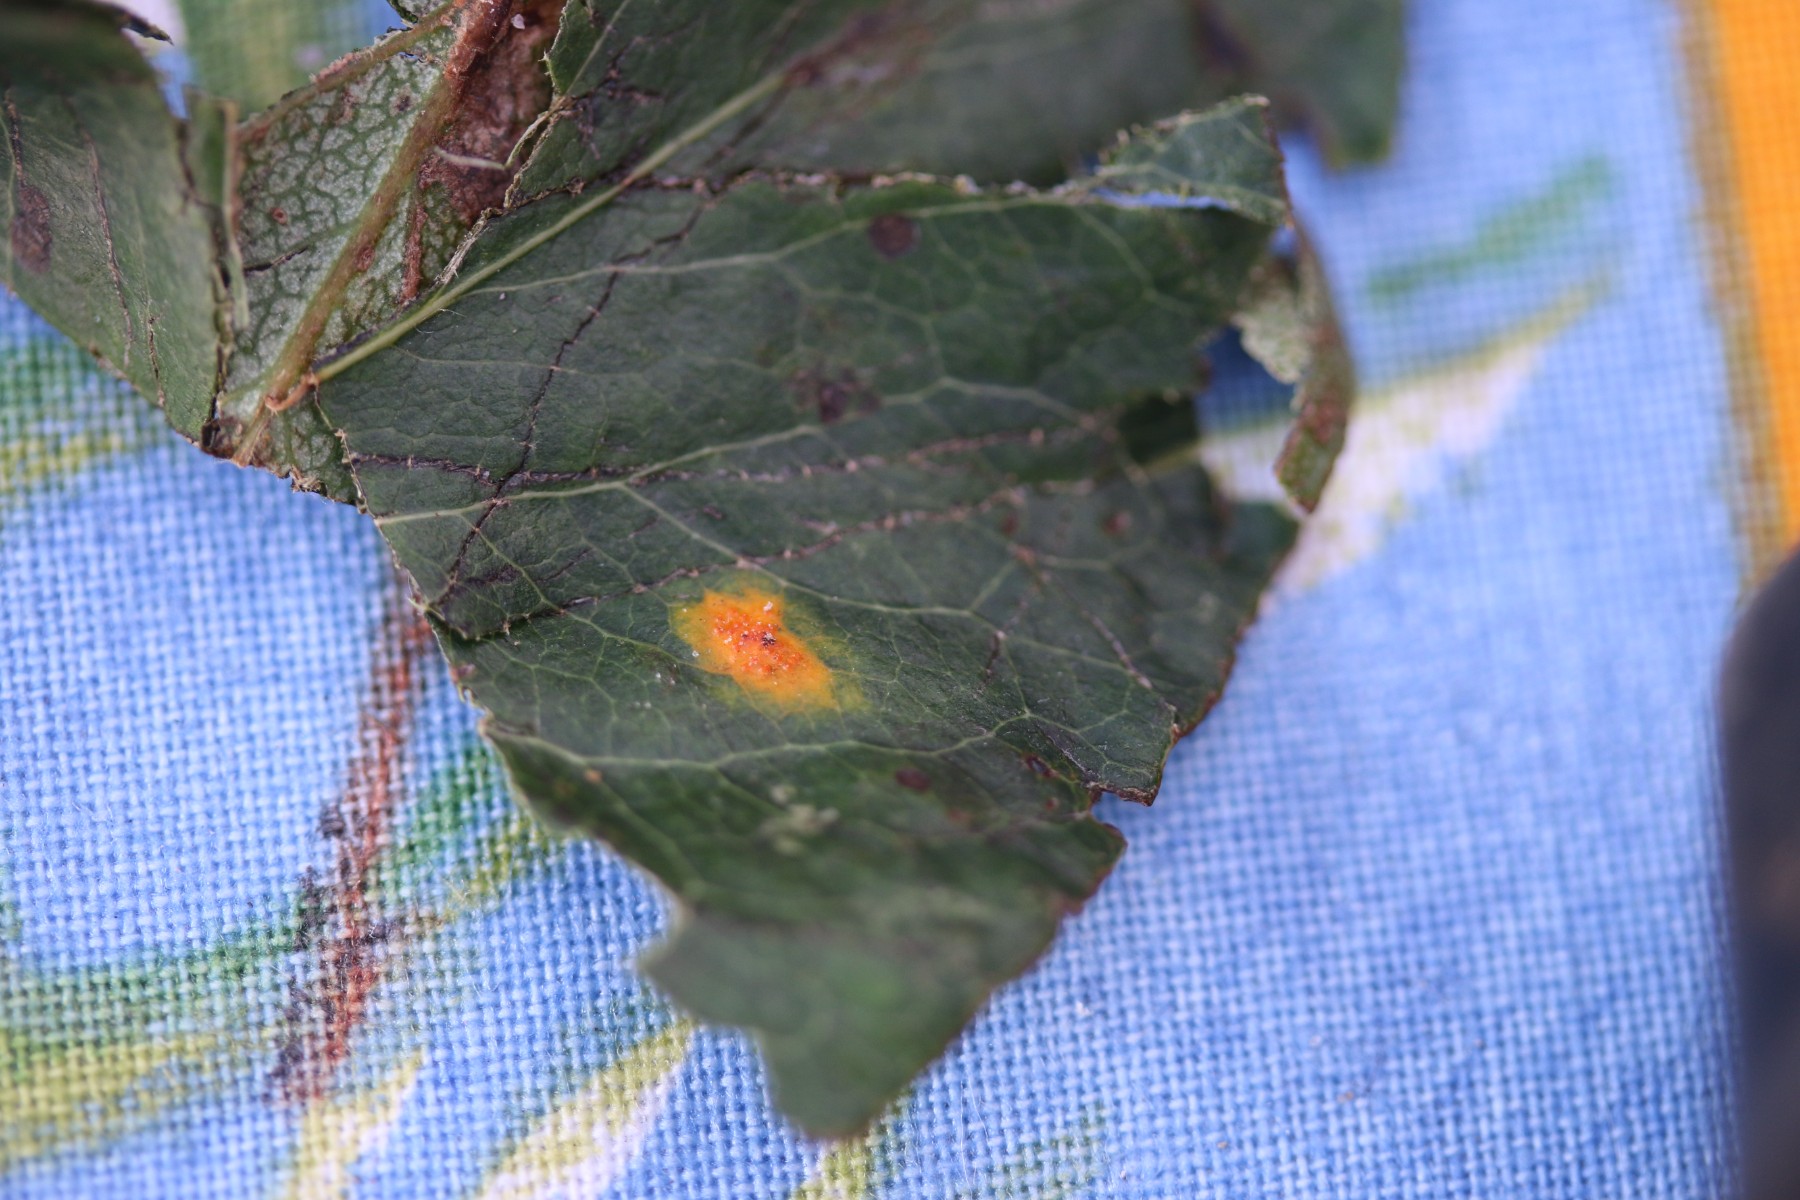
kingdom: Fungi
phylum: Basidiomycota
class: Pucciniomycetes
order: Pucciniales
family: Gymnosporangiaceae
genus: Gymnosporangium
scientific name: Gymnosporangium sabinae
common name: pæregitter-bævrerust
